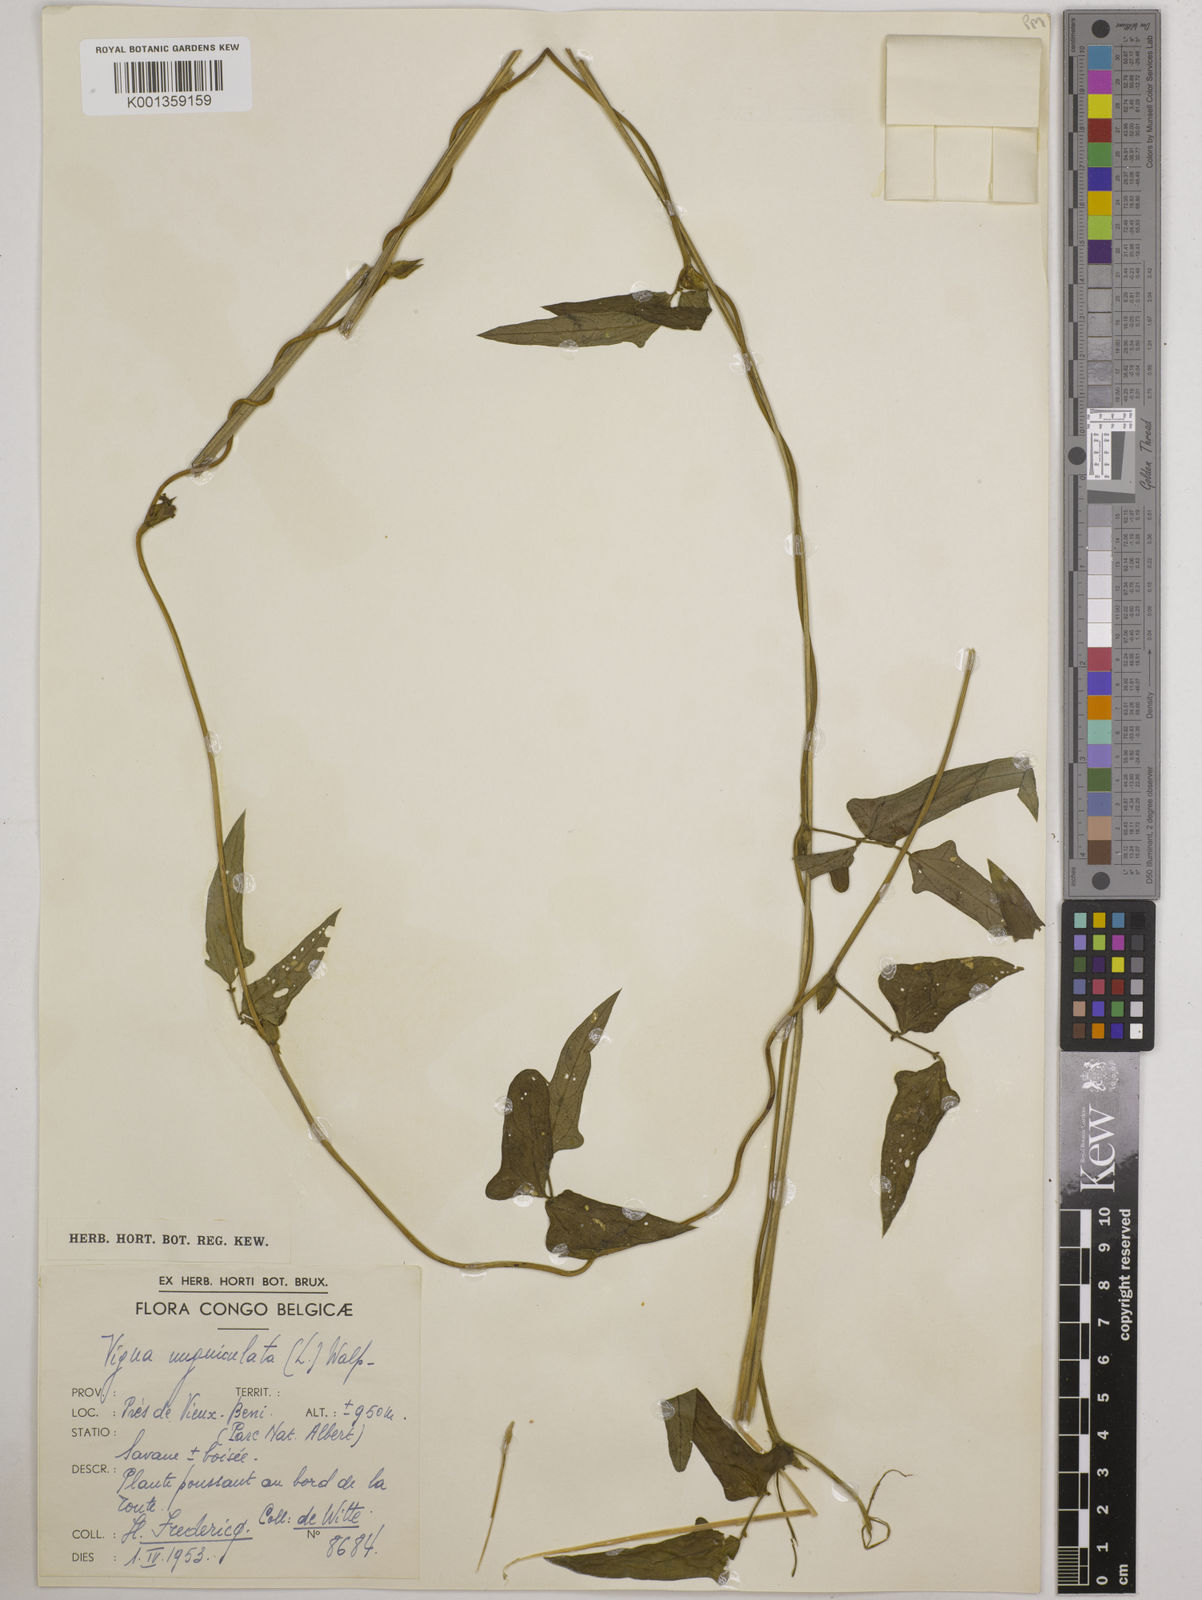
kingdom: Plantae
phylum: Tracheophyta
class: Magnoliopsida
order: Fabales
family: Fabaceae
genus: Vigna
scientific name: Vigna
